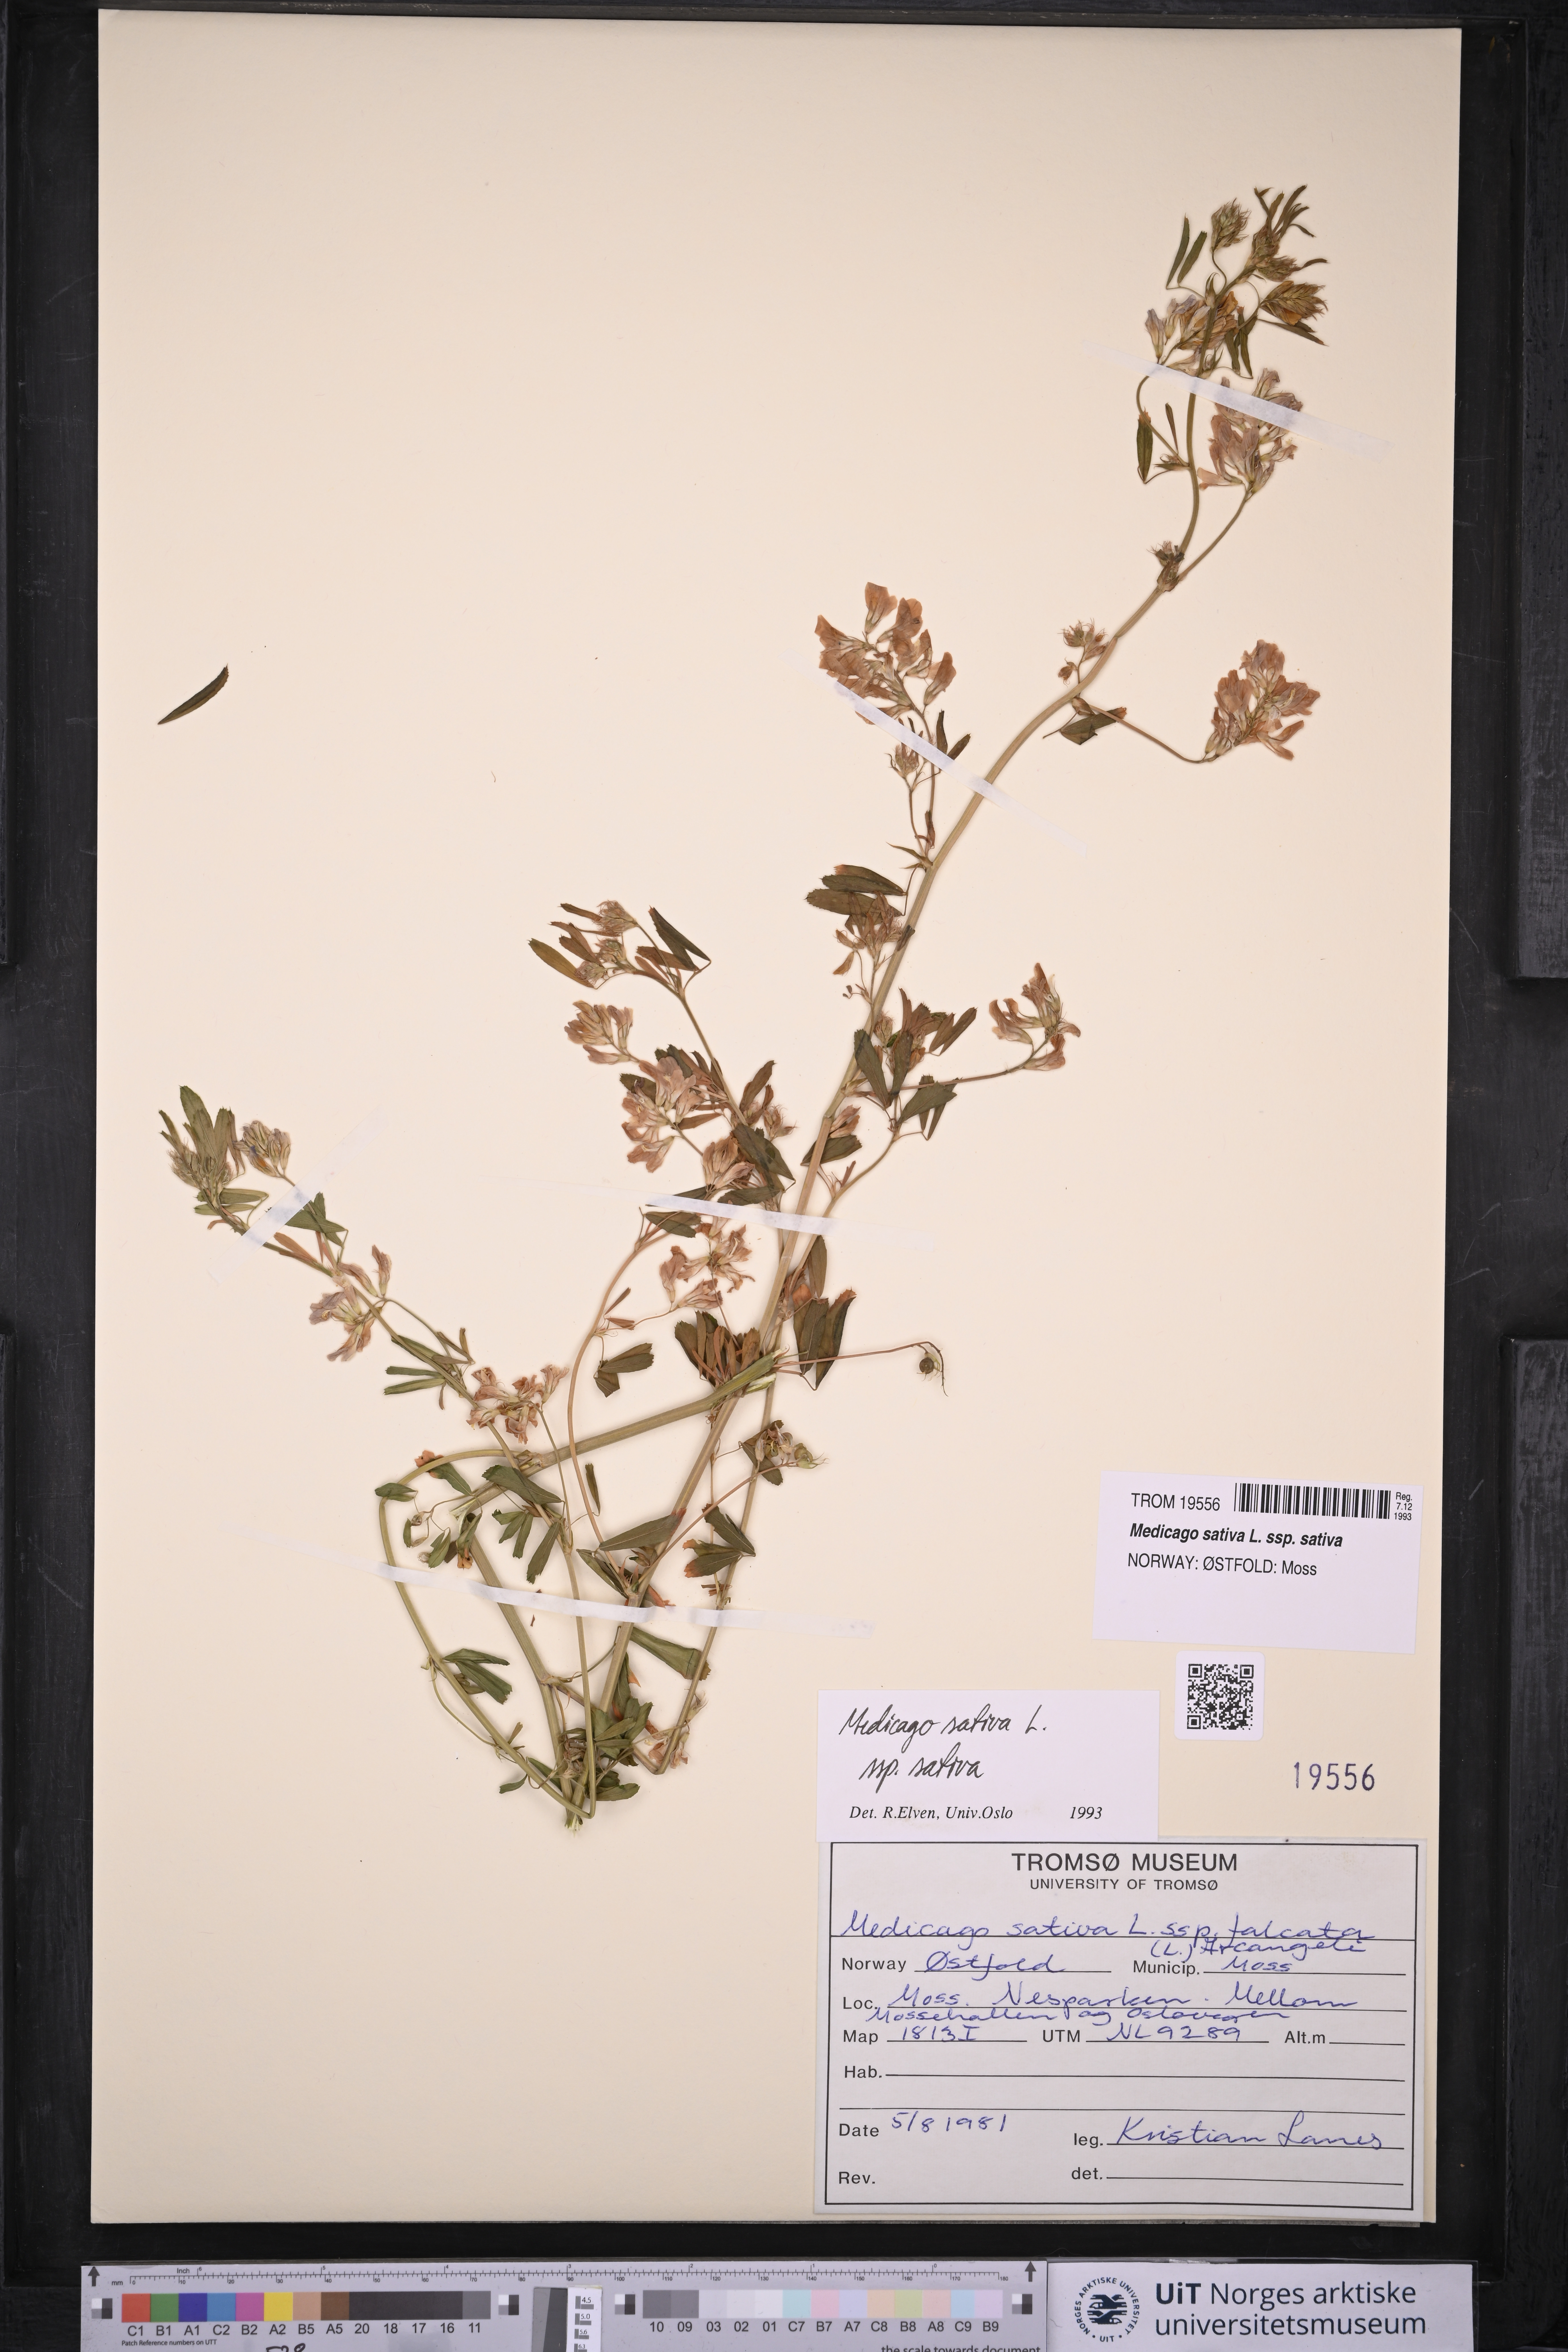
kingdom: Plantae
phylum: Tracheophyta
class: Magnoliopsida
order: Fabales
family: Fabaceae
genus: Medicago
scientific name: Medicago sativa
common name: Alfalfa
